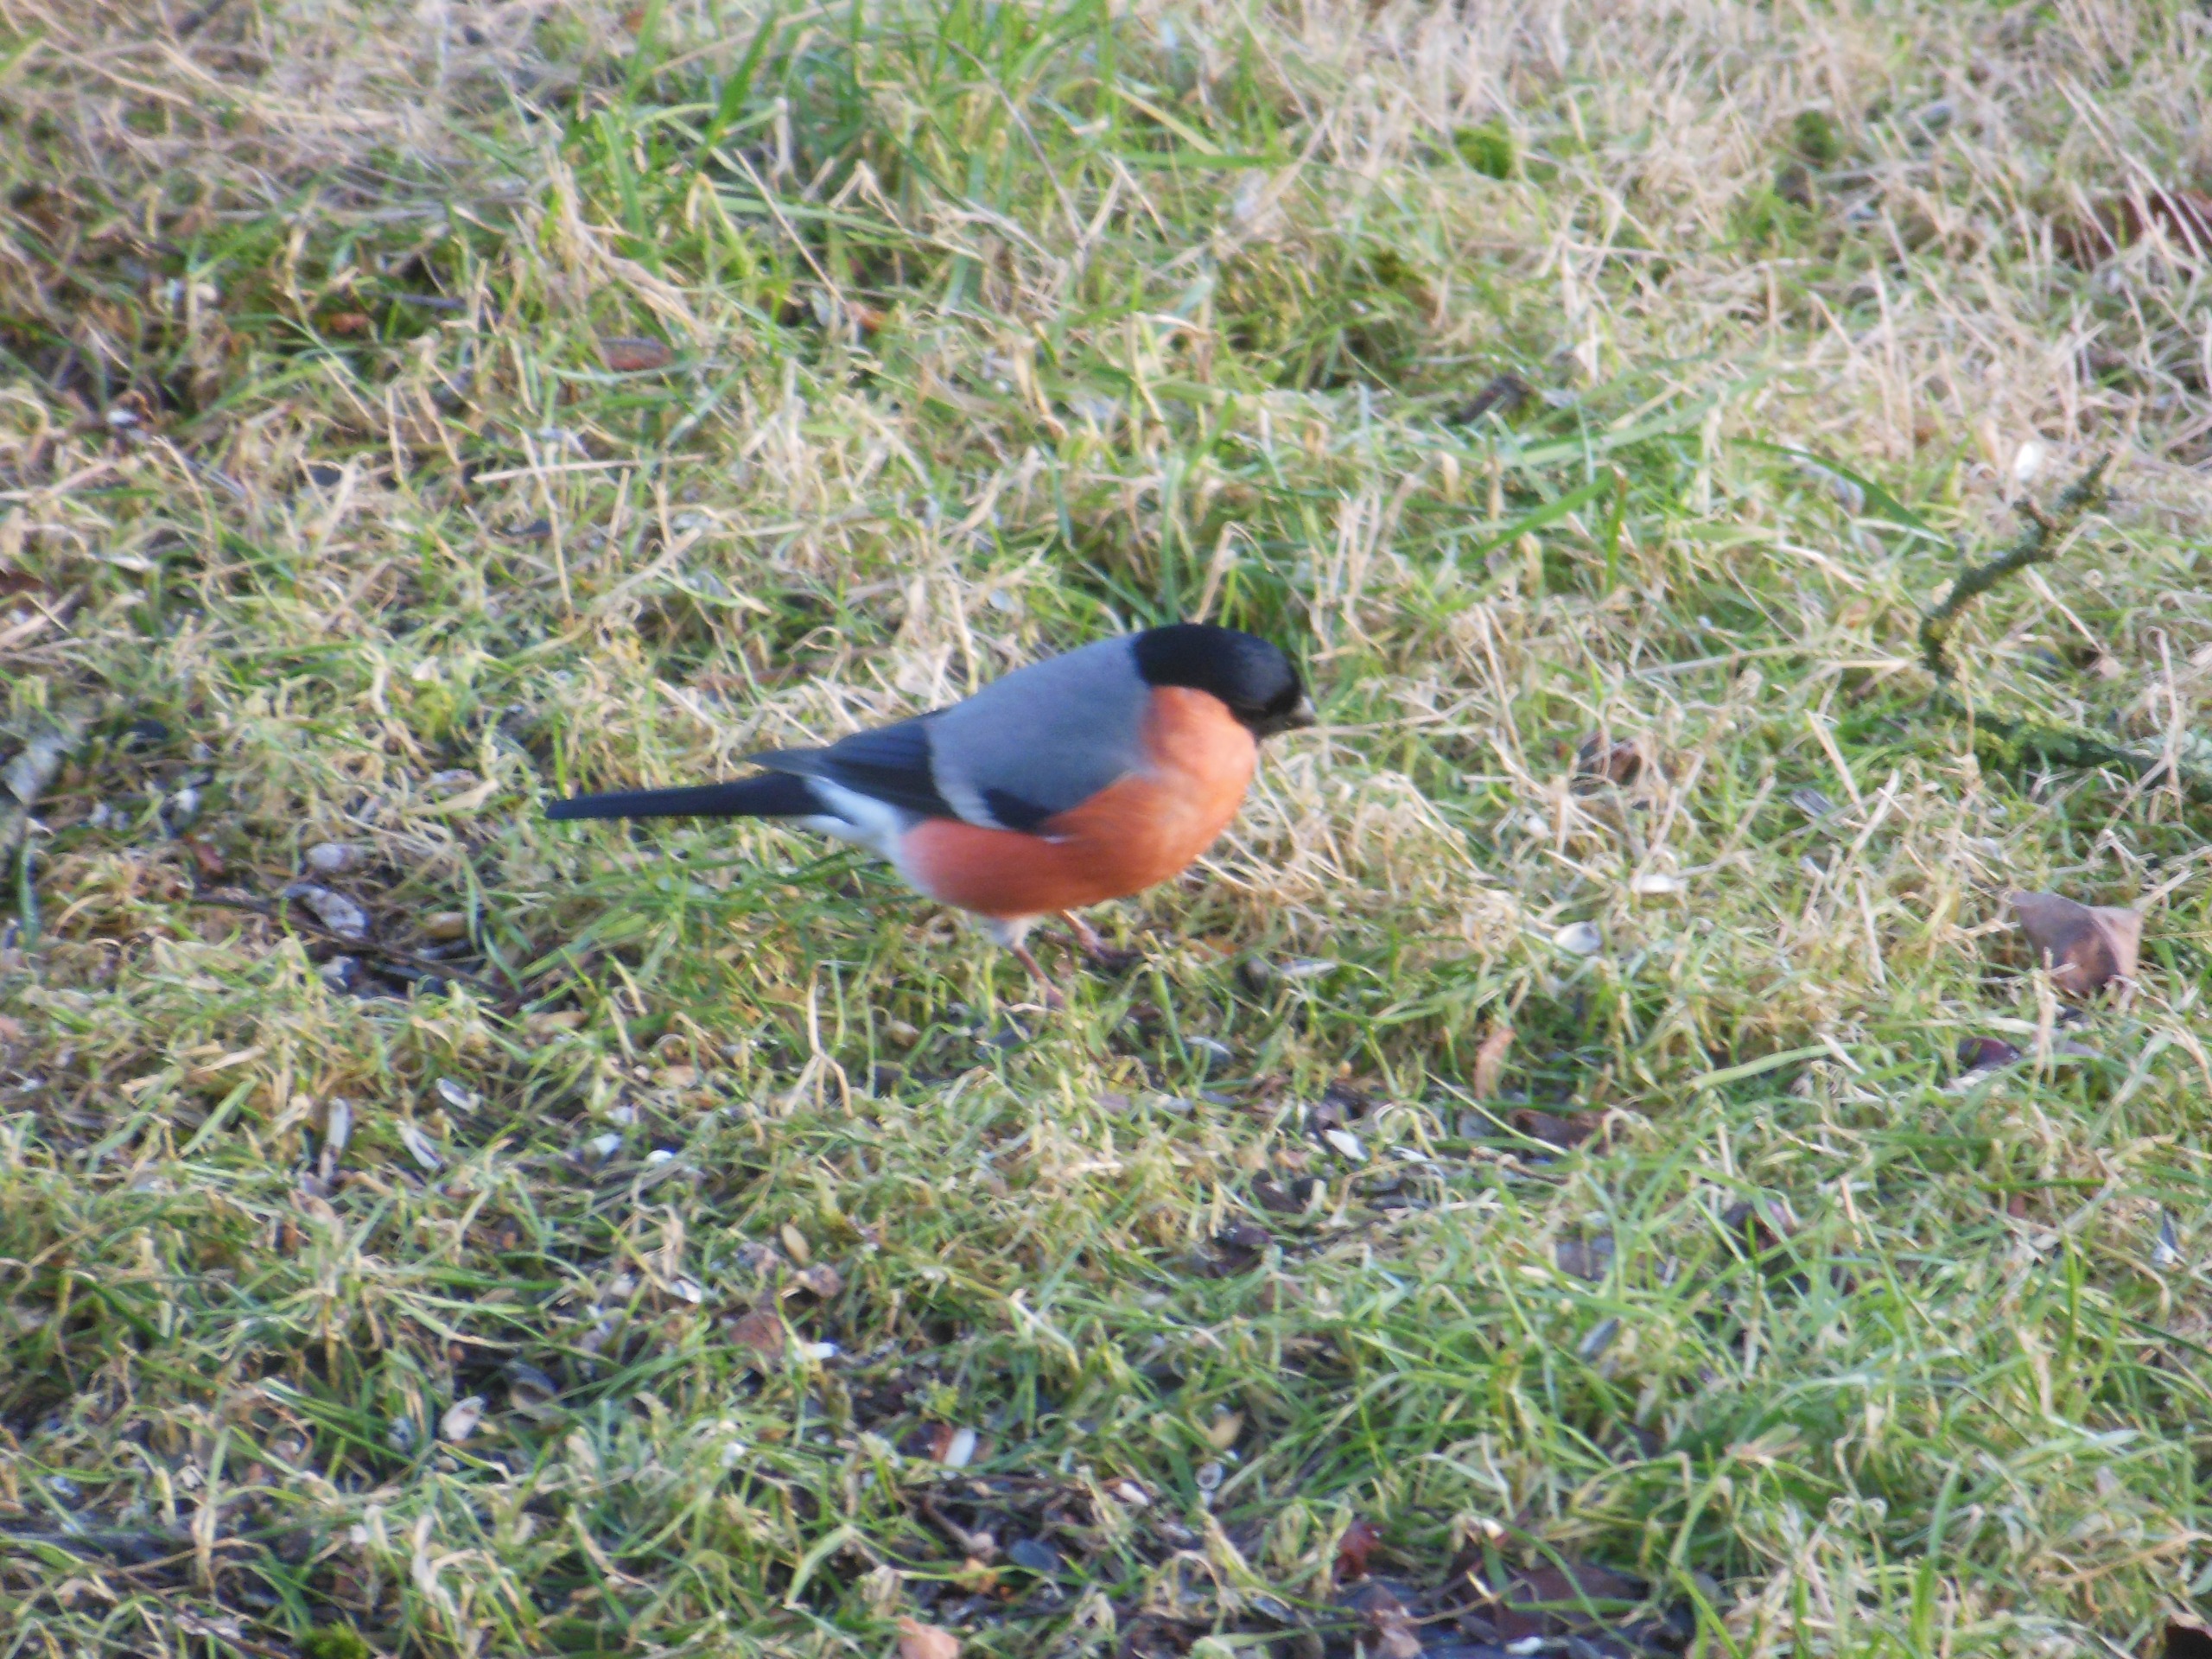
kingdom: Animalia
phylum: Chordata
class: Aves
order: Passeriformes
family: Fringillidae
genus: Pyrrhula
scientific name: Pyrrhula pyrrhula
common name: Dompap
